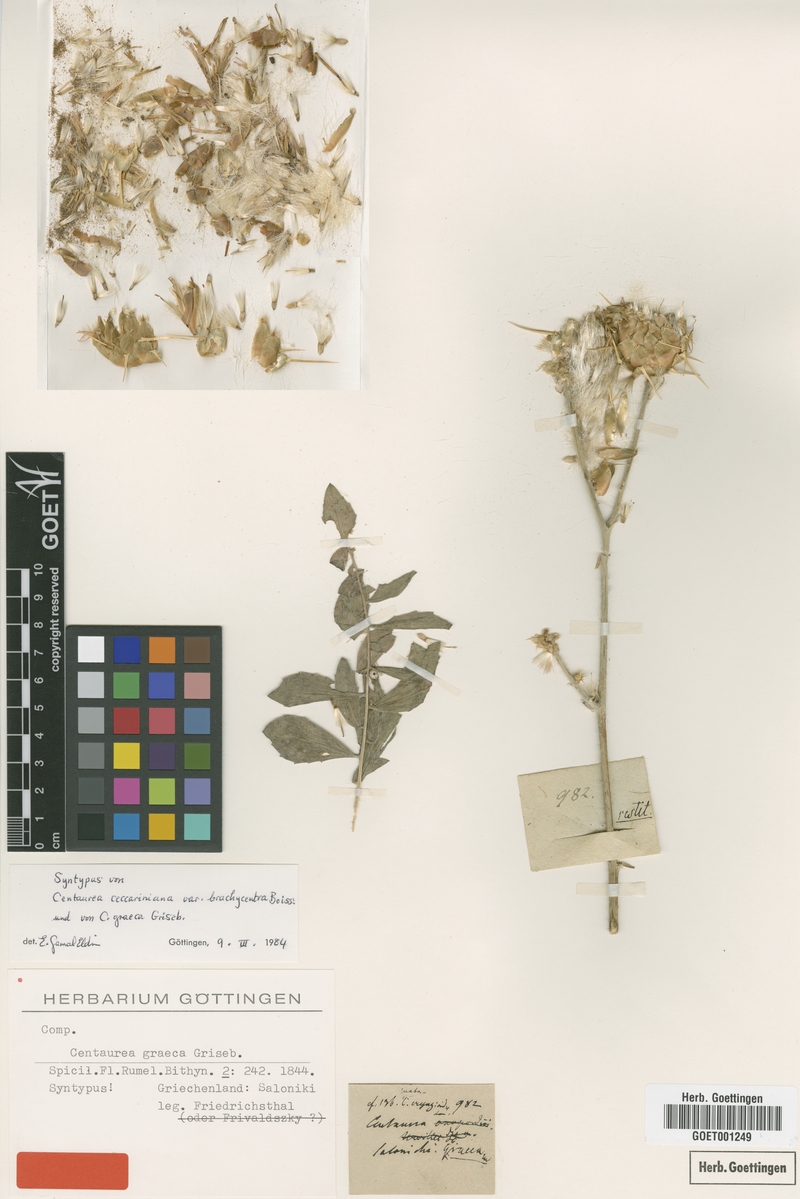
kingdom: Plantae
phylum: Tracheophyta
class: Magnoliopsida
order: Asterales
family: Asteraceae
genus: Centaurea
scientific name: Centaurea graeca
